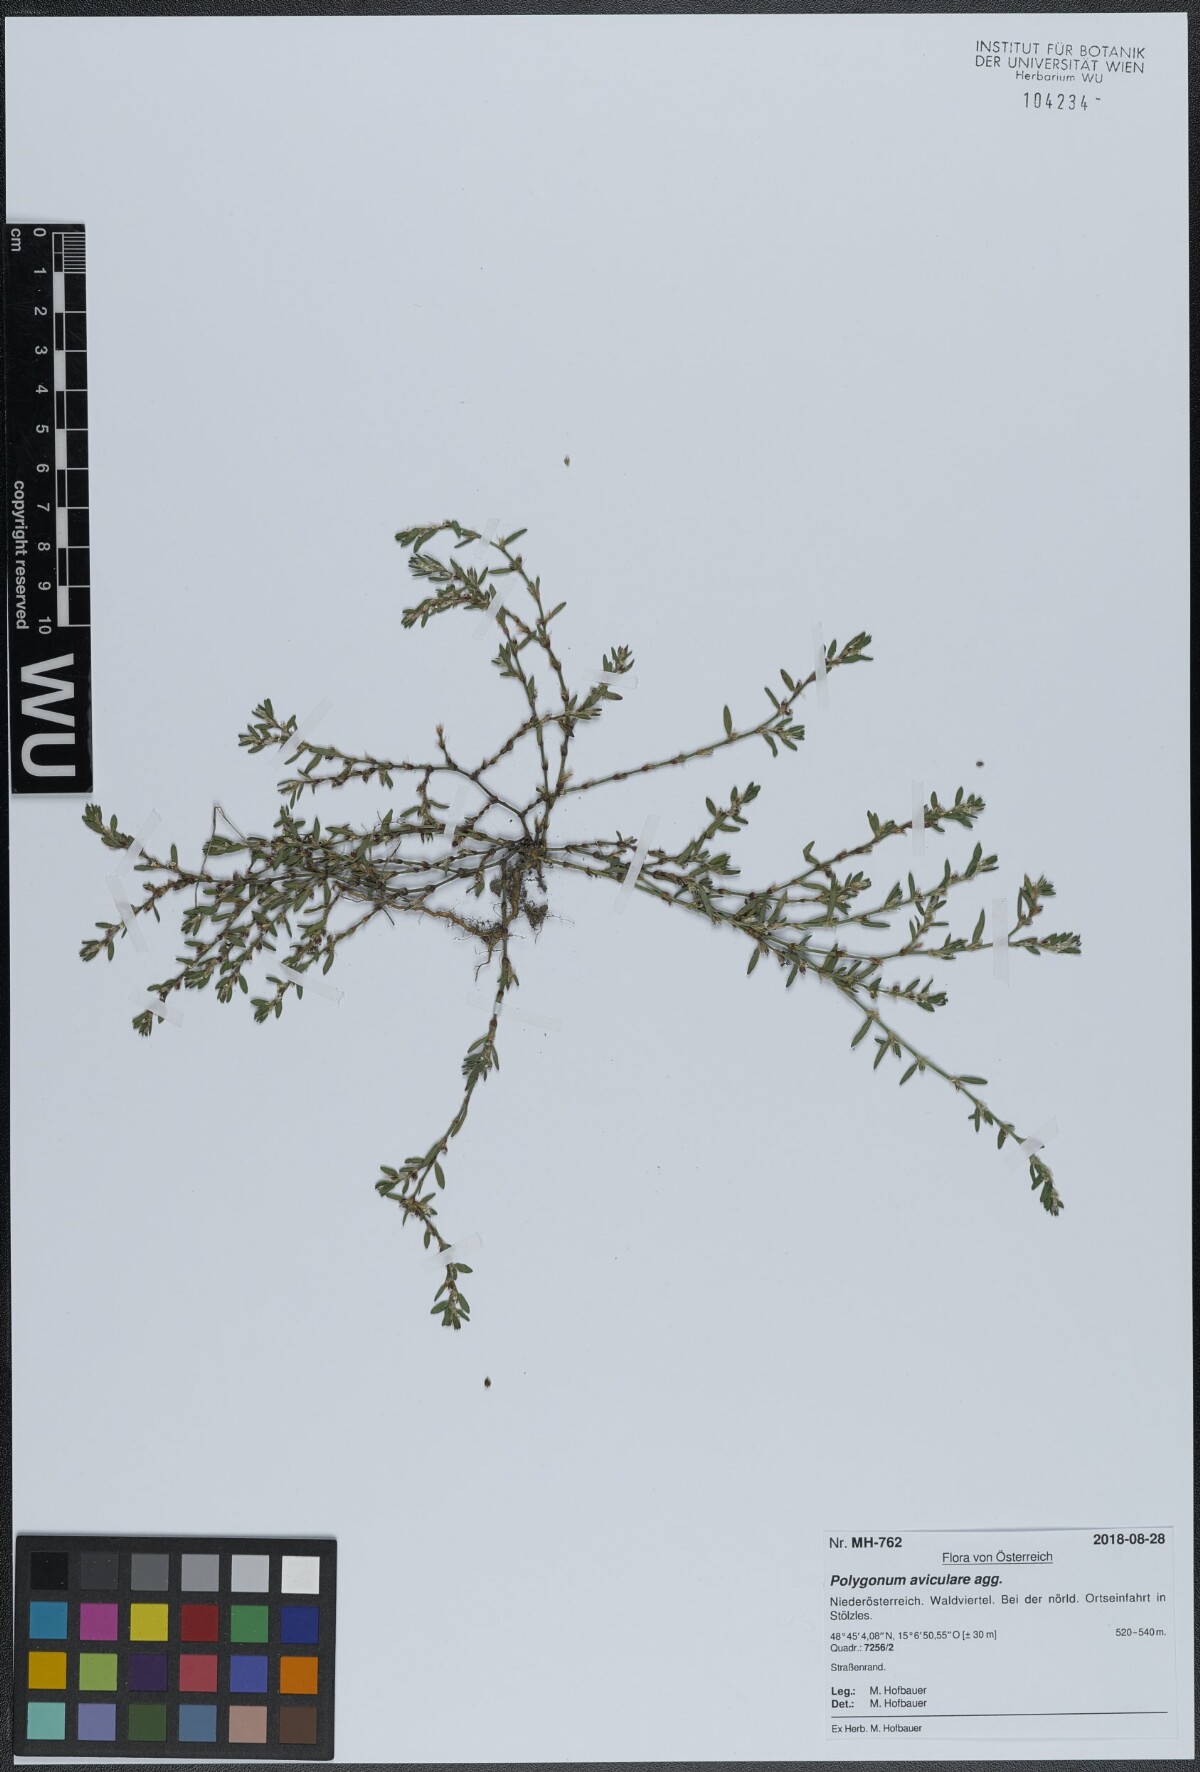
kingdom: Plantae
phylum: Tracheophyta
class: Magnoliopsida
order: Caryophyllales
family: Polygonaceae
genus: Polygonum
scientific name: Polygonum arenastrum
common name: Equal-leaved knotgrass
